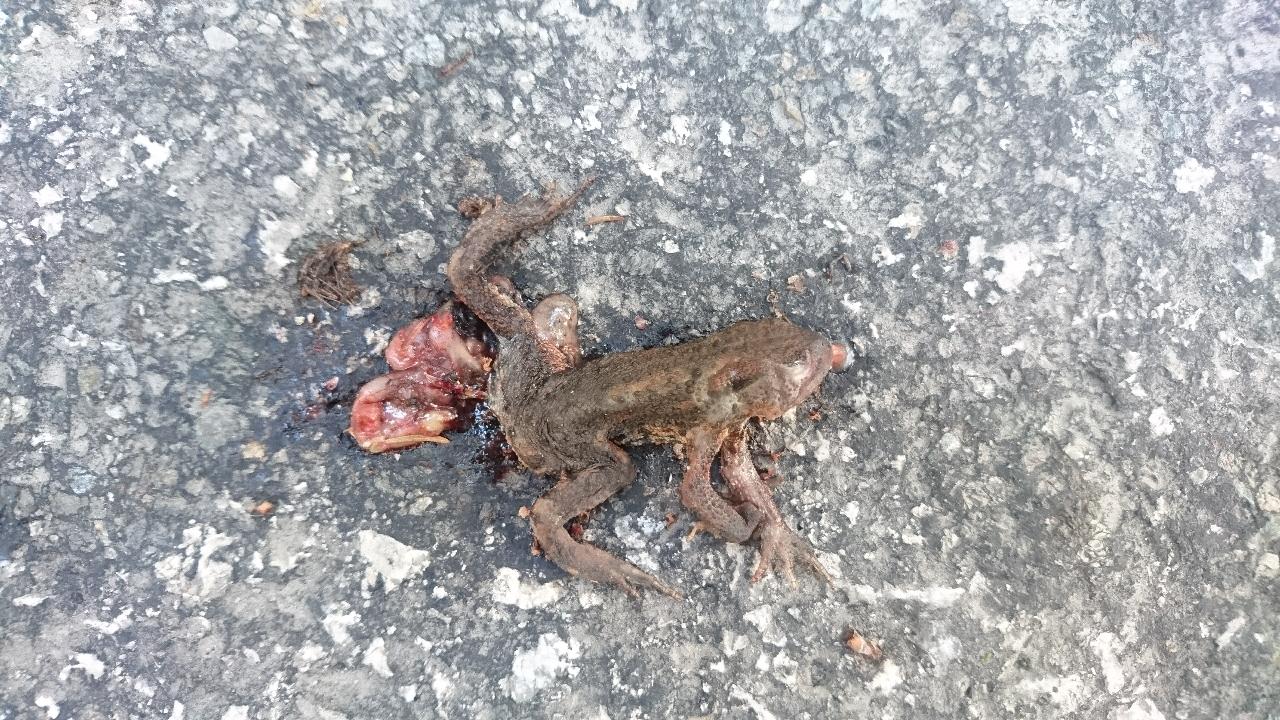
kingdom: Animalia
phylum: Chordata
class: Amphibia
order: Anura
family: Bufonidae
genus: Bufo
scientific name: Bufo bufo
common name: Common toad
